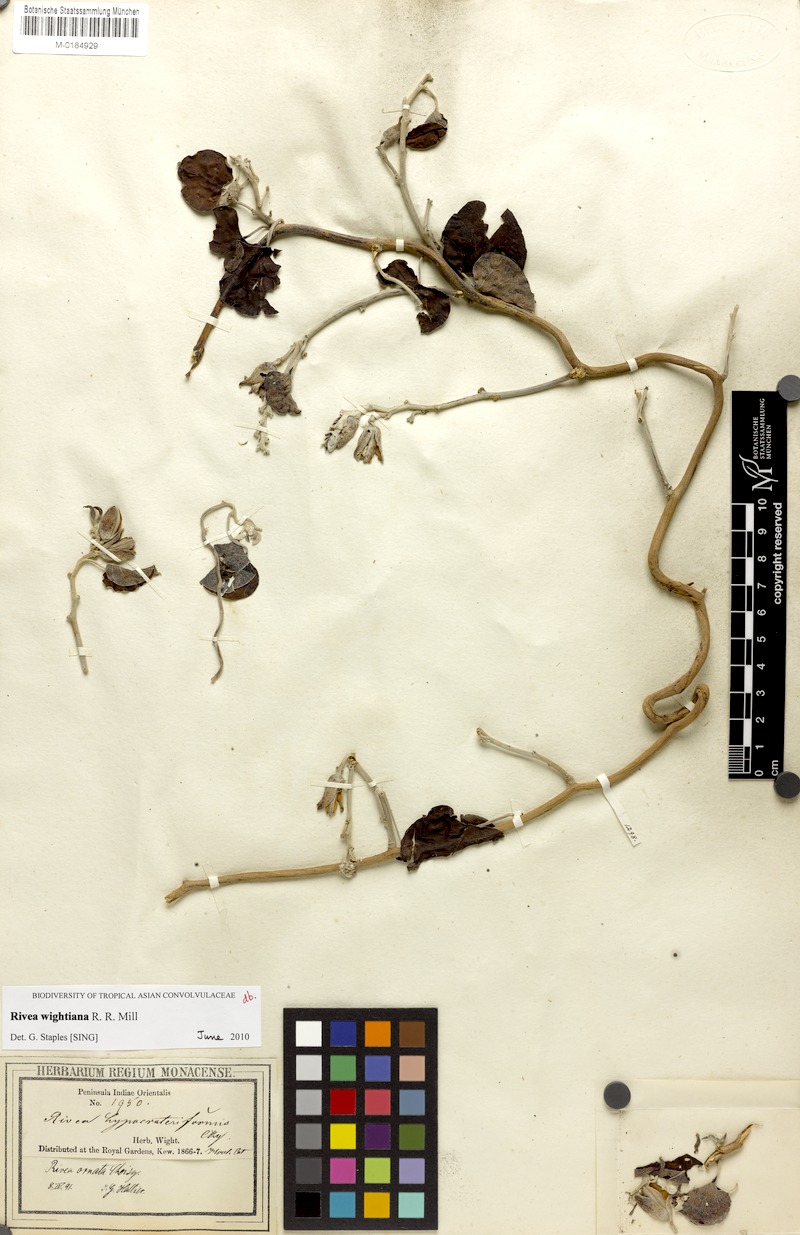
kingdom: Plantae
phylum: Tracheophyta
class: Magnoliopsida
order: Solanales
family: Convolvulaceae
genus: Rivea
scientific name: Rivea wightiana
